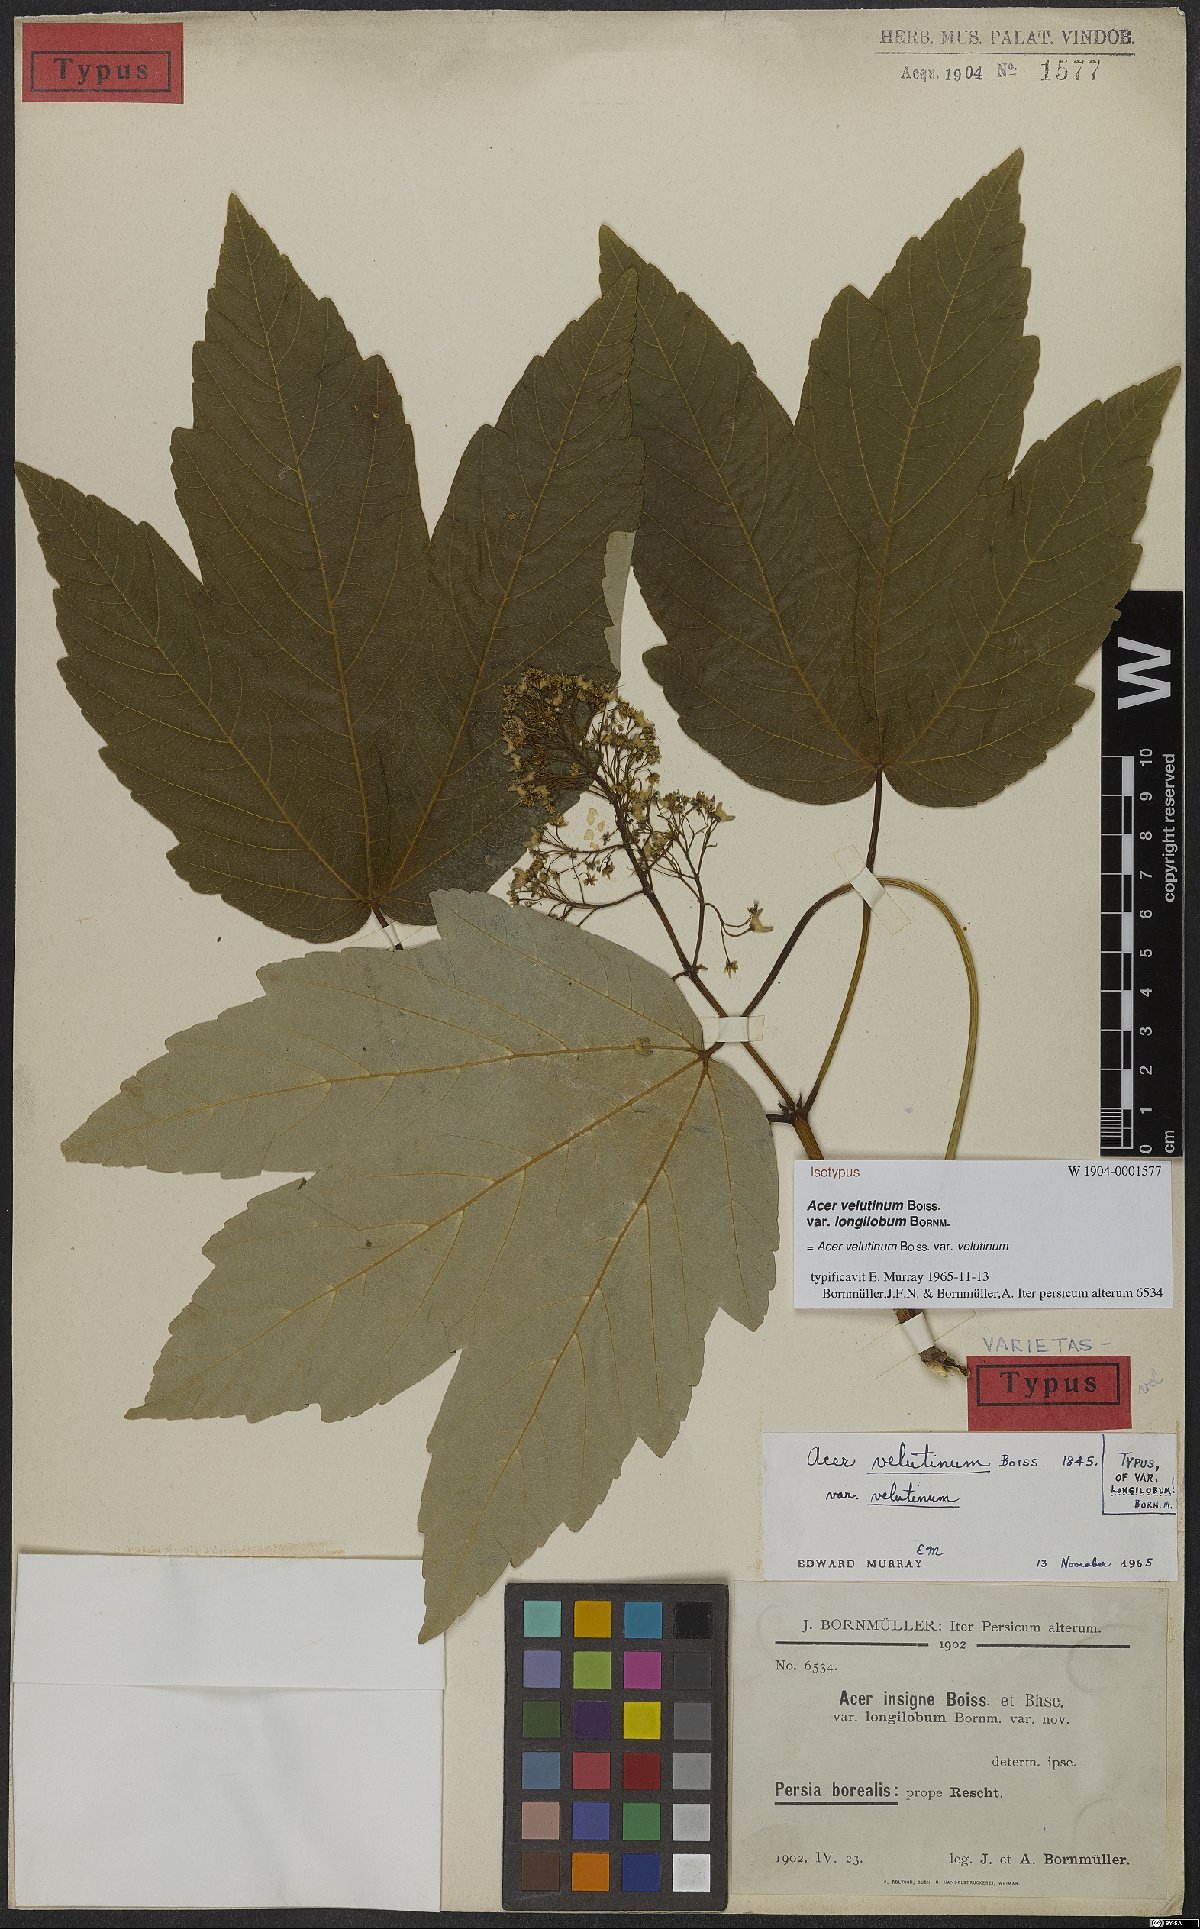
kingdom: Plantae
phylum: Tracheophyta
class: Magnoliopsida
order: Sapindales
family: Sapindaceae
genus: Acer
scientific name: Acer velutinum
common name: Velvet maple
